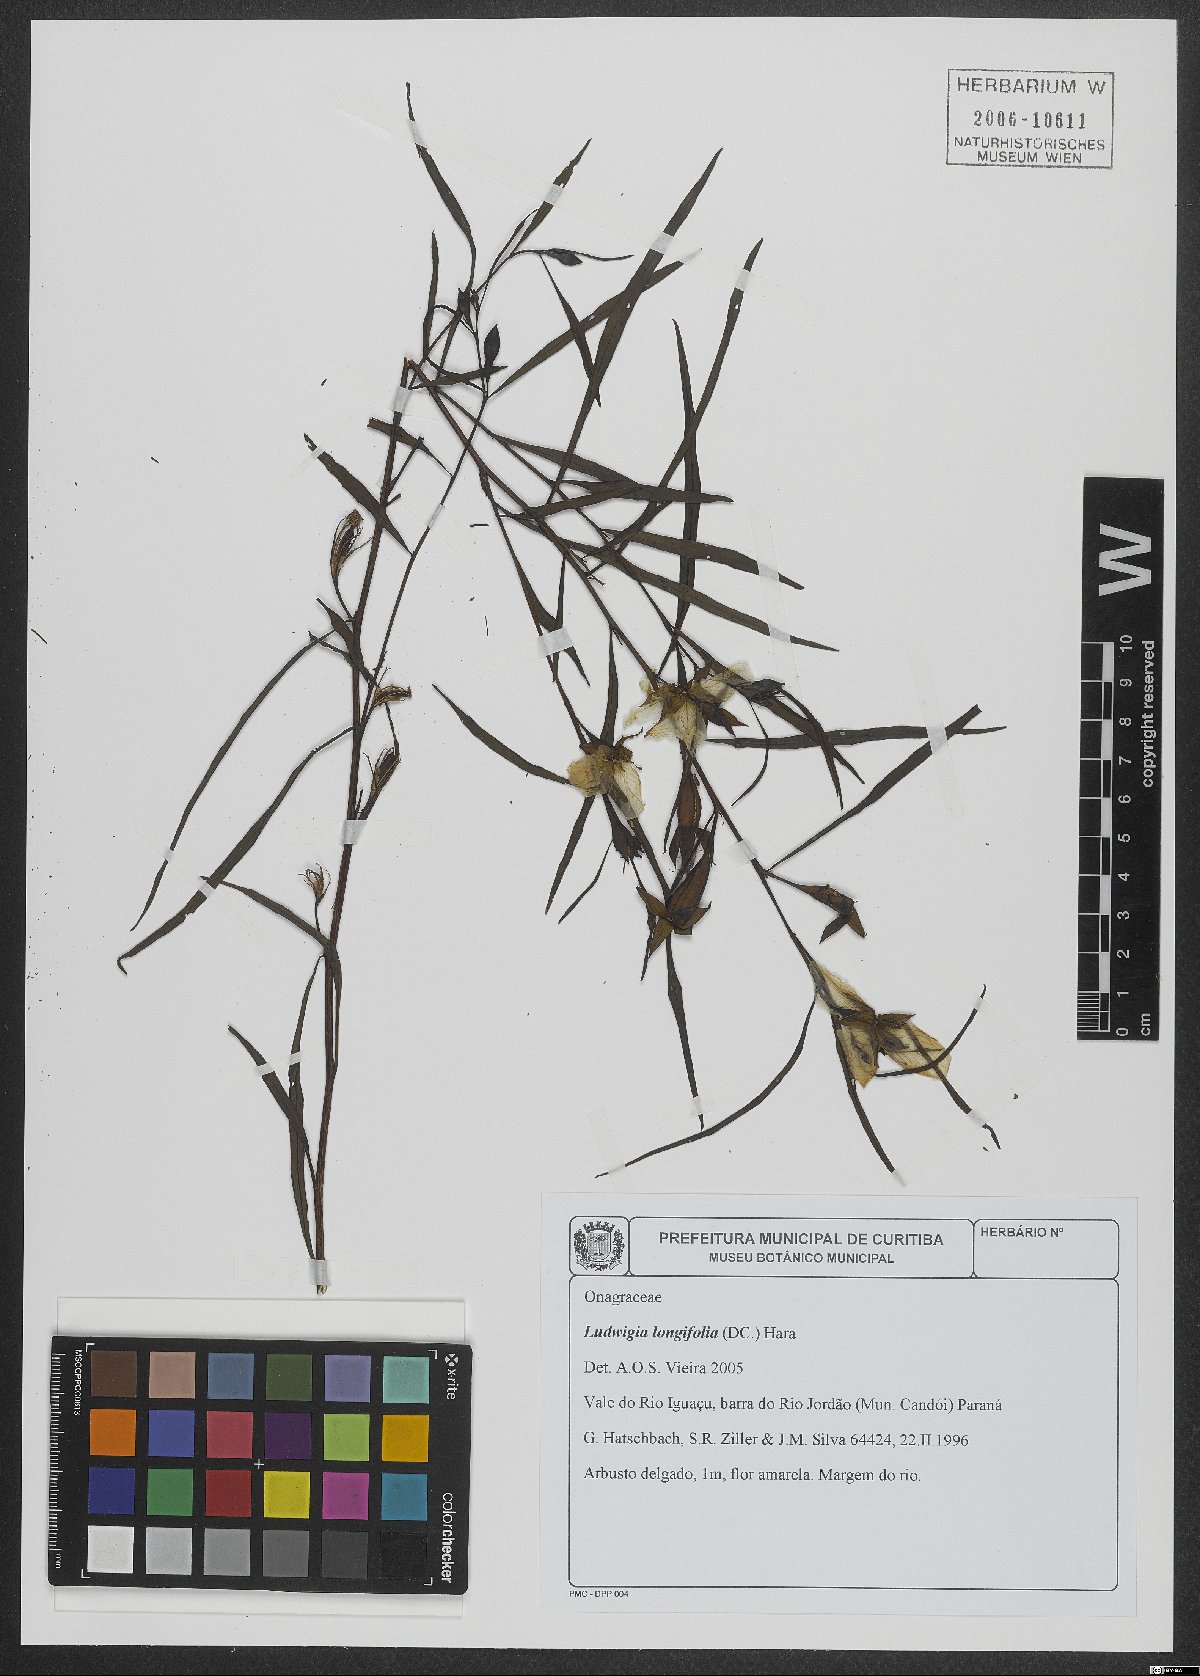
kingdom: Plantae
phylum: Tracheophyta
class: Magnoliopsida
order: Myrtales
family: Onagraceae
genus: Ludwigia
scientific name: Ludwigia longifolia
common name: Longleaf primrose-willow
